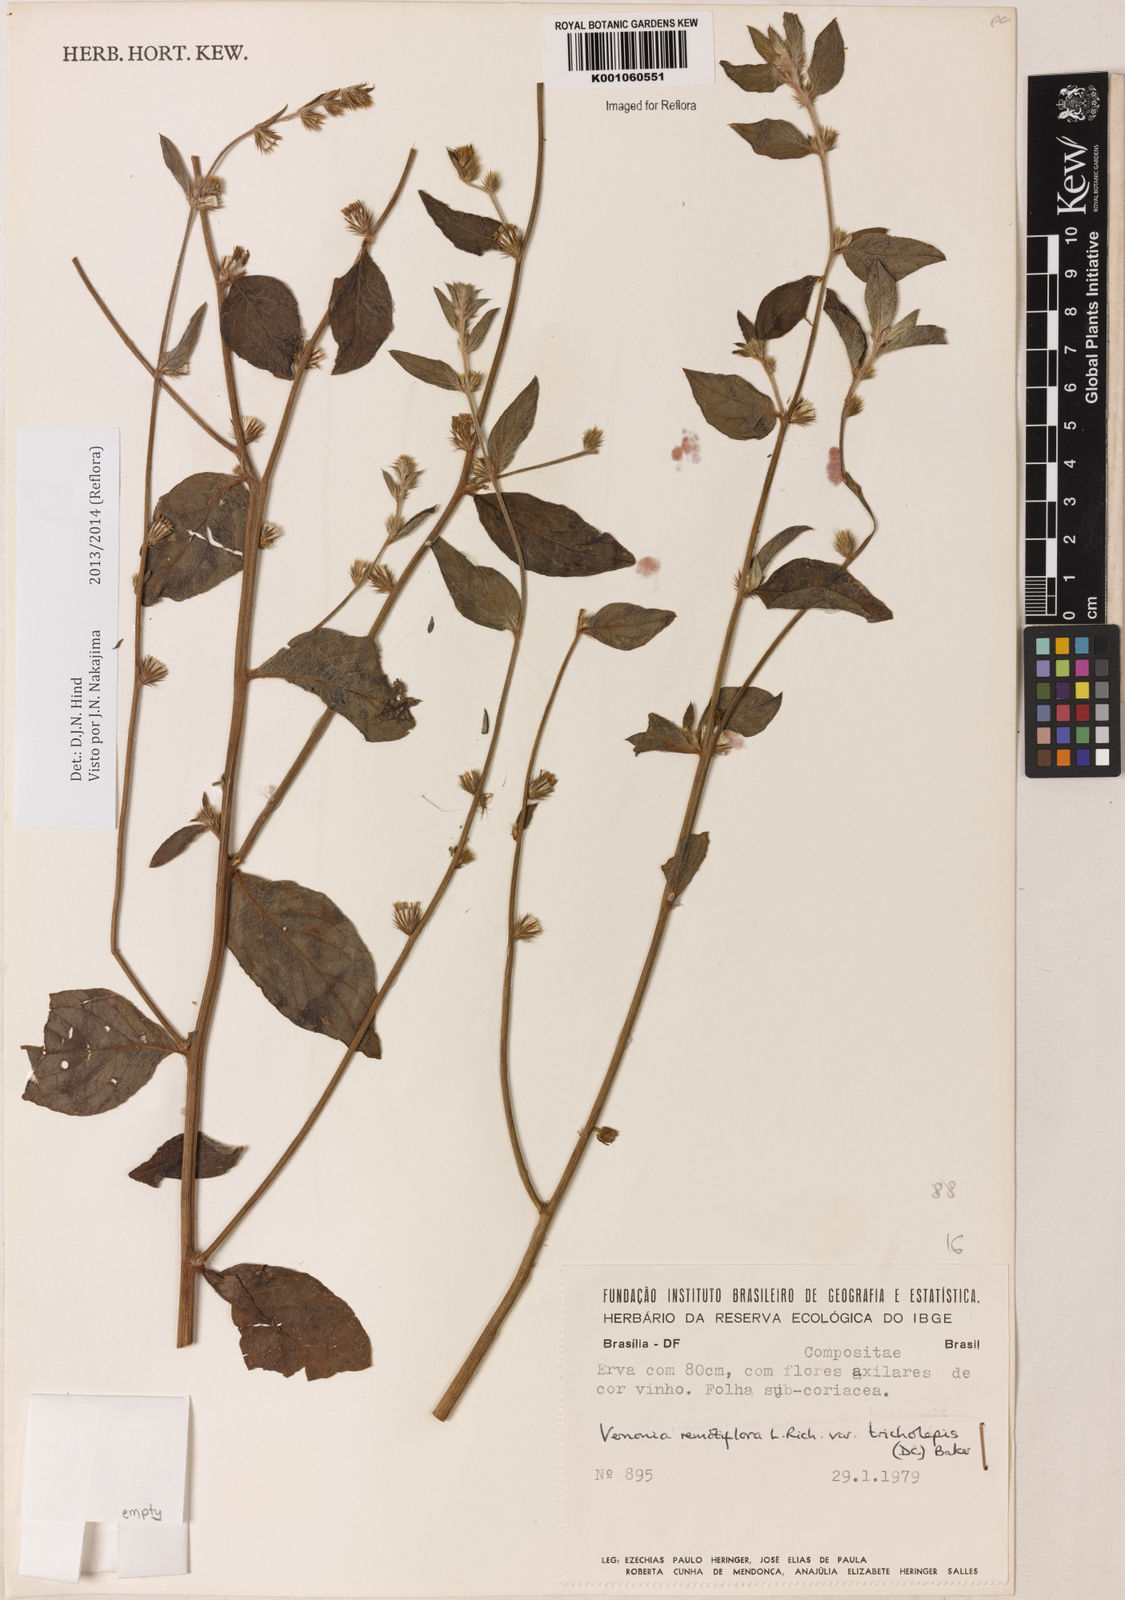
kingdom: Plantae
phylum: Tracheophyta
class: Magnoliopsida
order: Asterales
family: Asteraceae
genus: Lepidaploa
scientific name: Lepidaploa remotiflora
